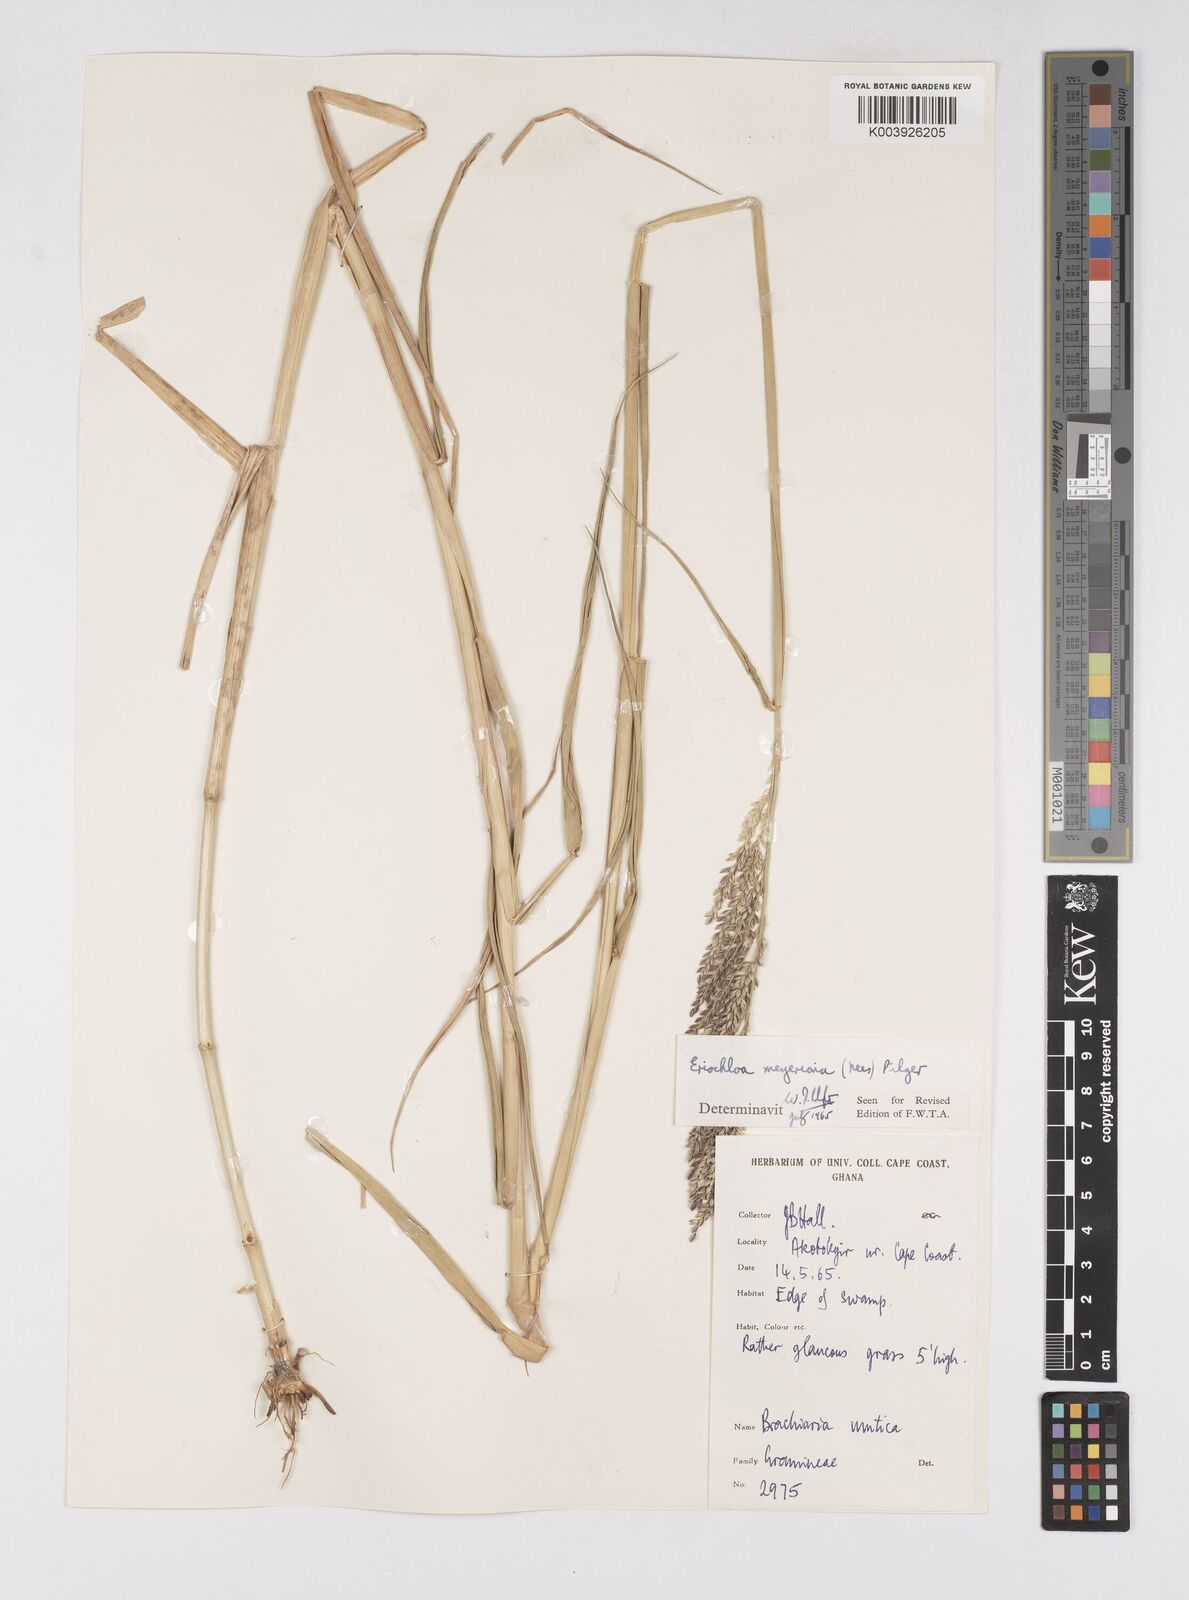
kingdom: Plantae
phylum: Tracheophyta
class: Liliopsida
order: Poales
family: Poaceae
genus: Eriochloa
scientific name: Eriochloa meyeriana
